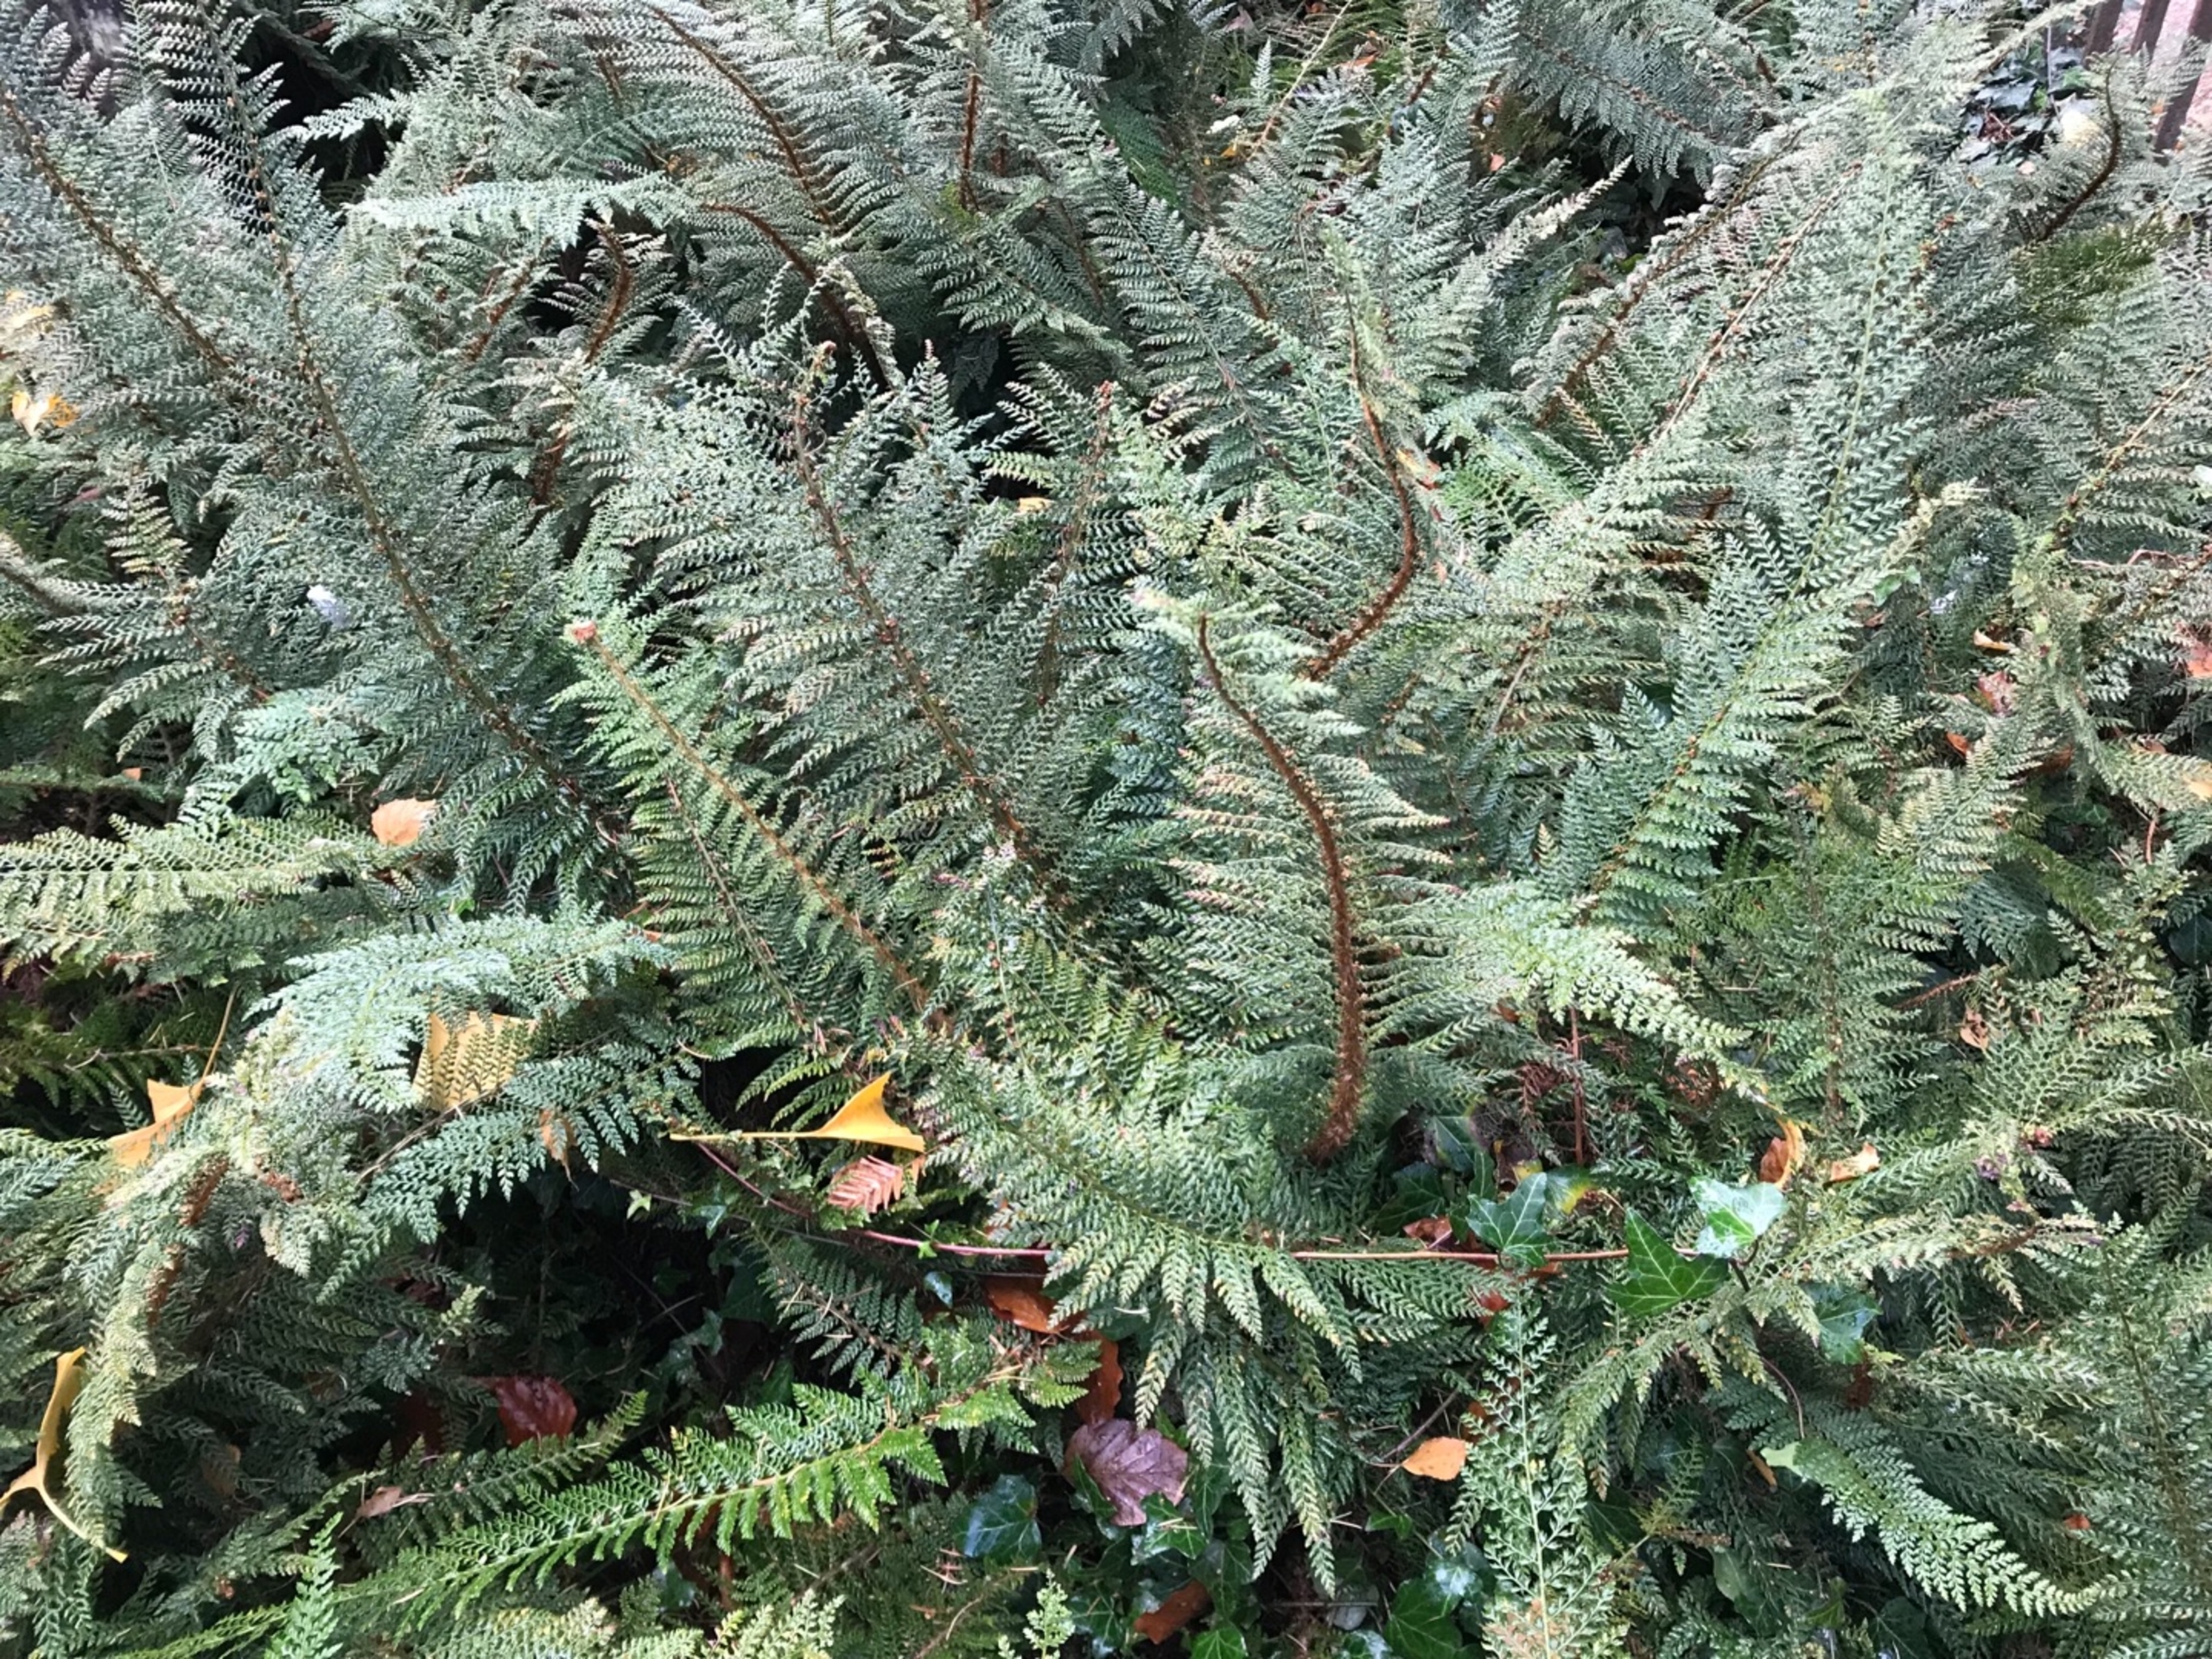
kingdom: Plantae
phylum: Tracheophyta
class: Polypodiopsida
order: Polypodiales
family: Dryopteridaceae
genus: Polystichum
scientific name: Polystichum setiferum
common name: Børste-skjoldbregne
